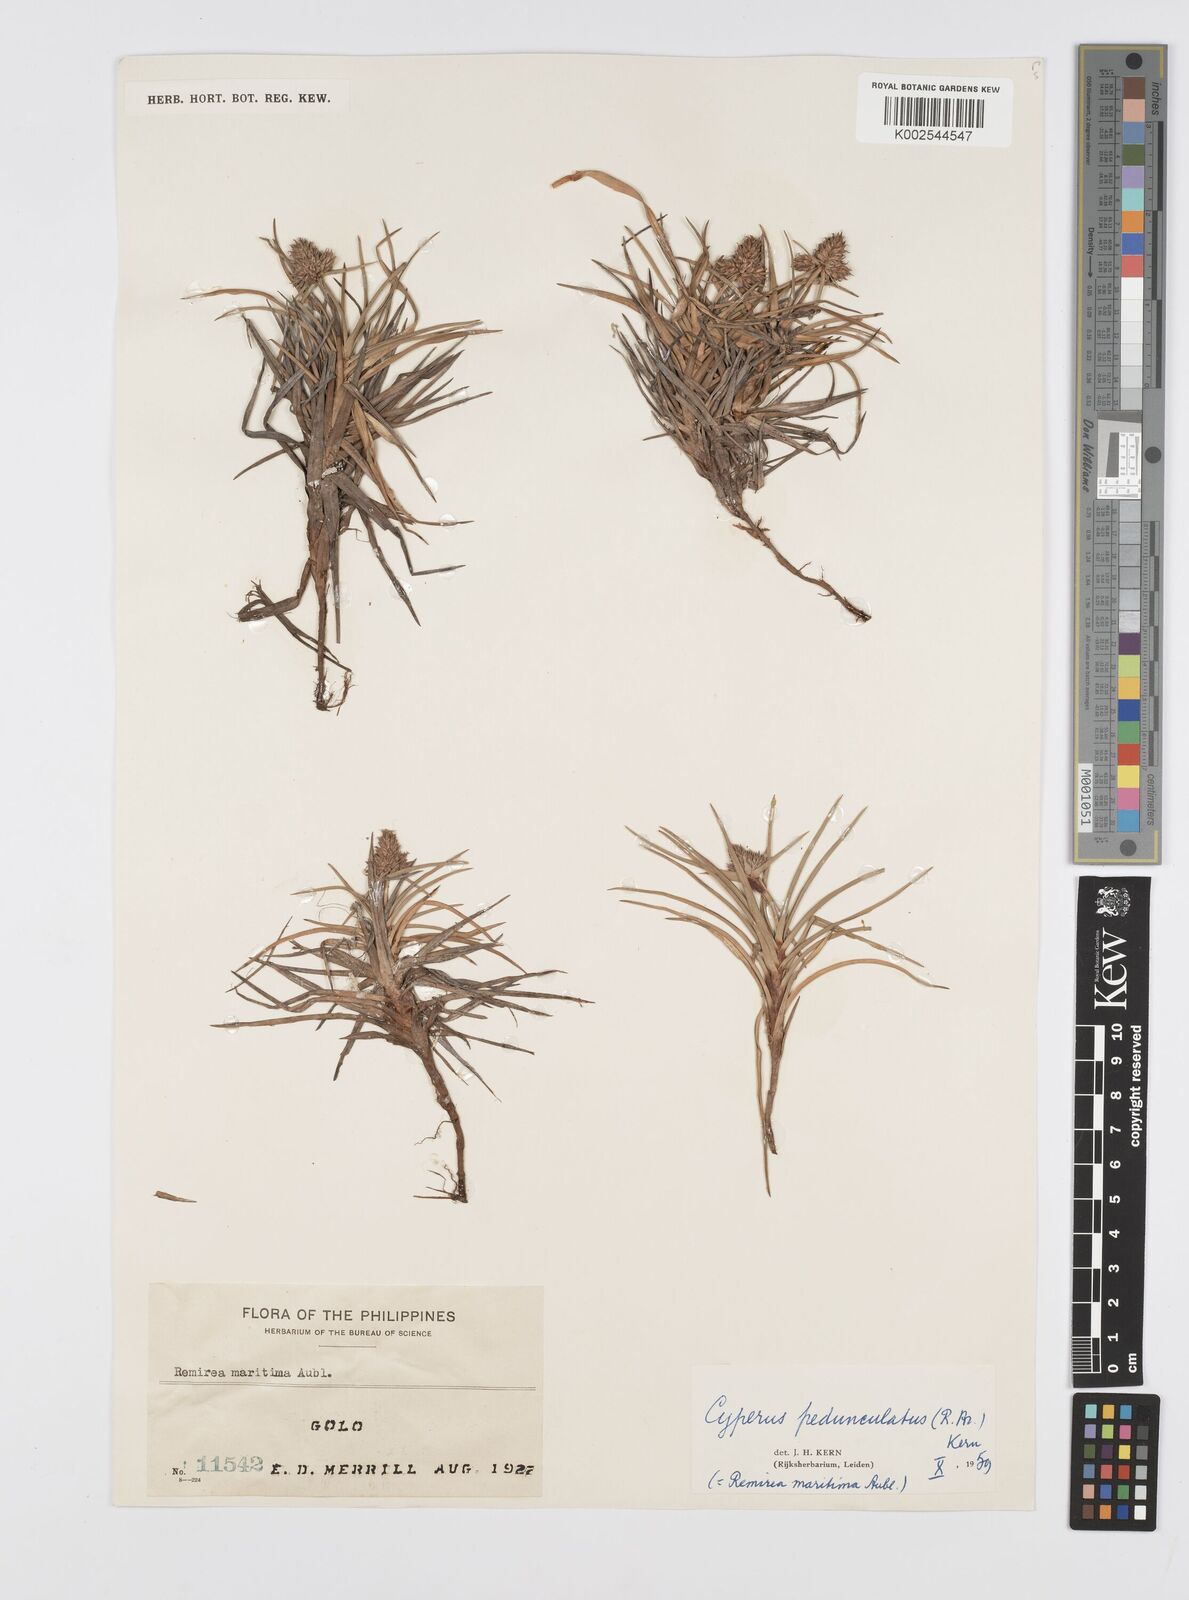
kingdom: Plantae
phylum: Tracheophyta
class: Liliopsida
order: Poales
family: Cyperaceae
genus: Cyperus
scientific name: Cyperus
